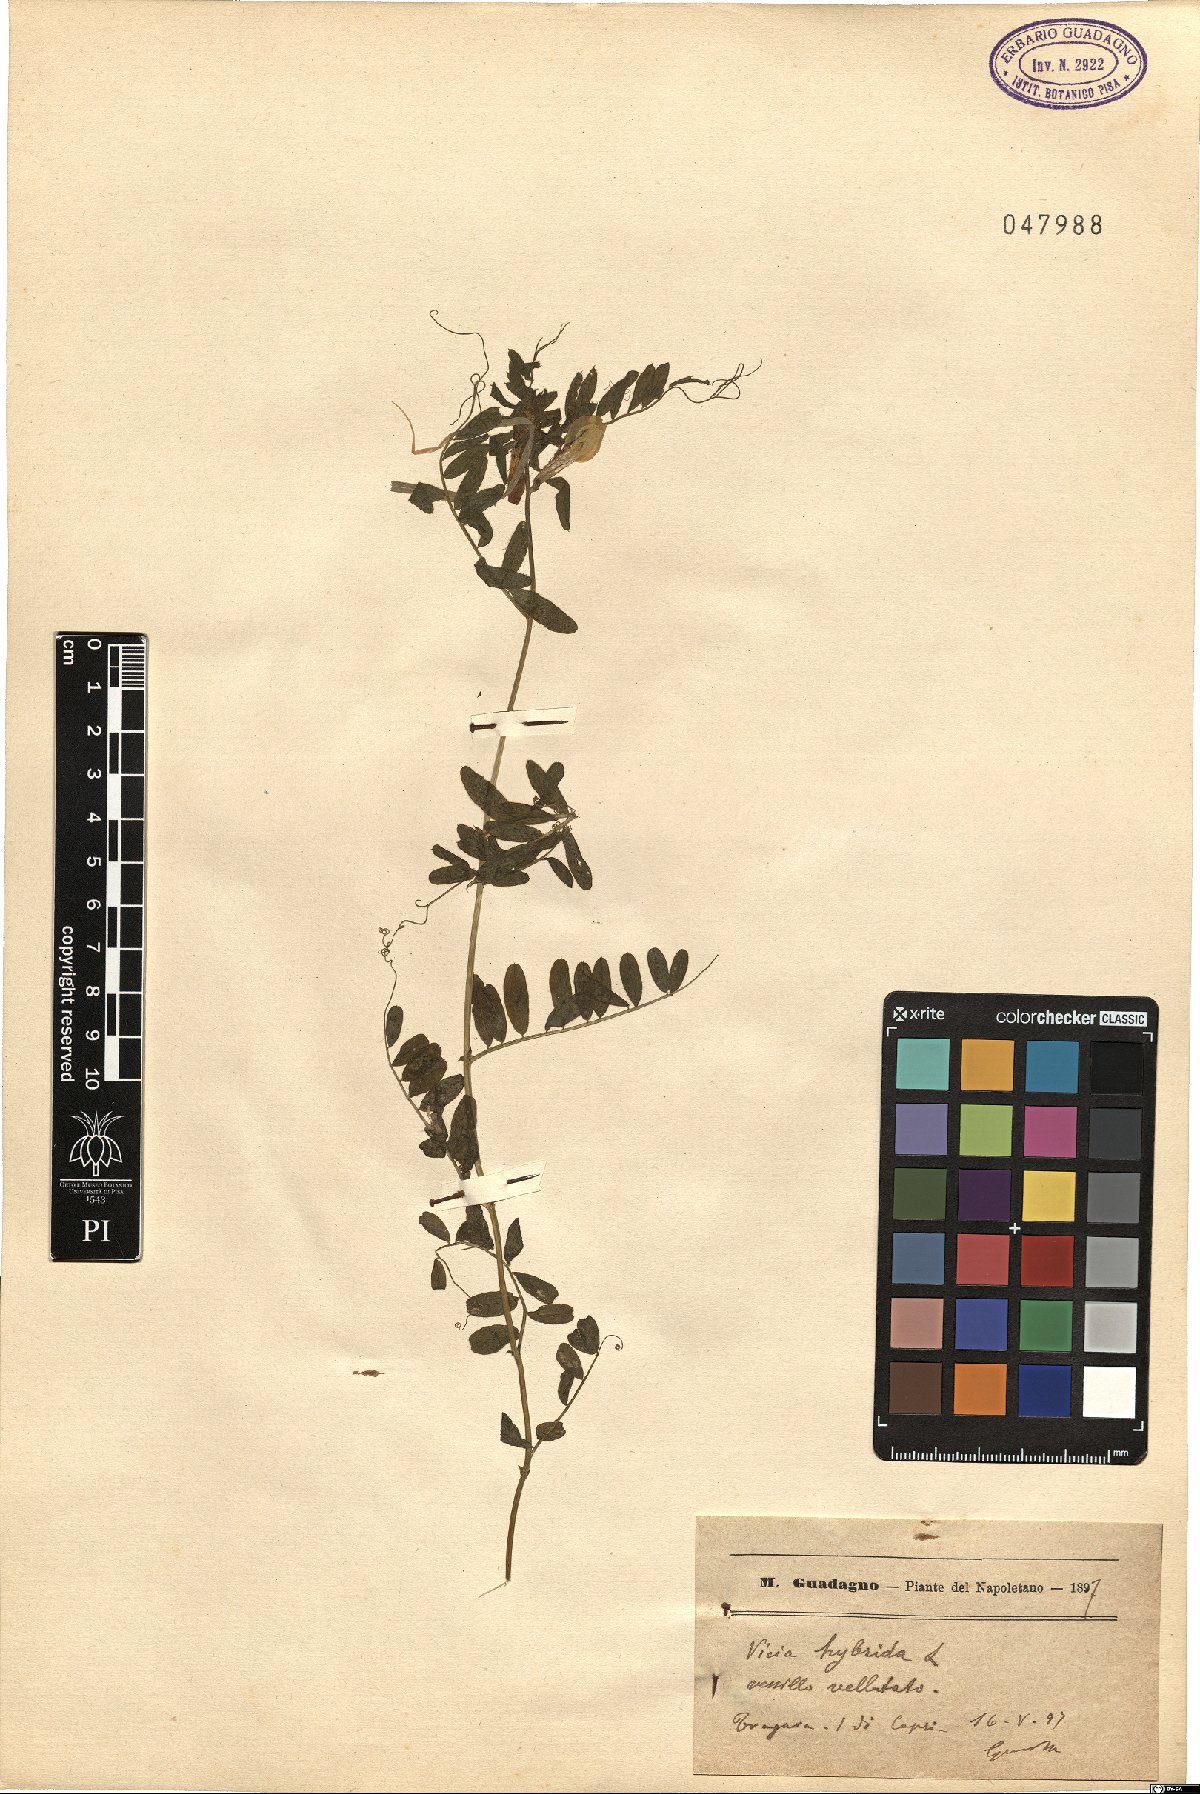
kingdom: Plantae
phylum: Tracheophyta
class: Magnoliopsida
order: Fabales
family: Fabaceae
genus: Vicia
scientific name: Vicia hybrida
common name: Hairy yellow vetch
